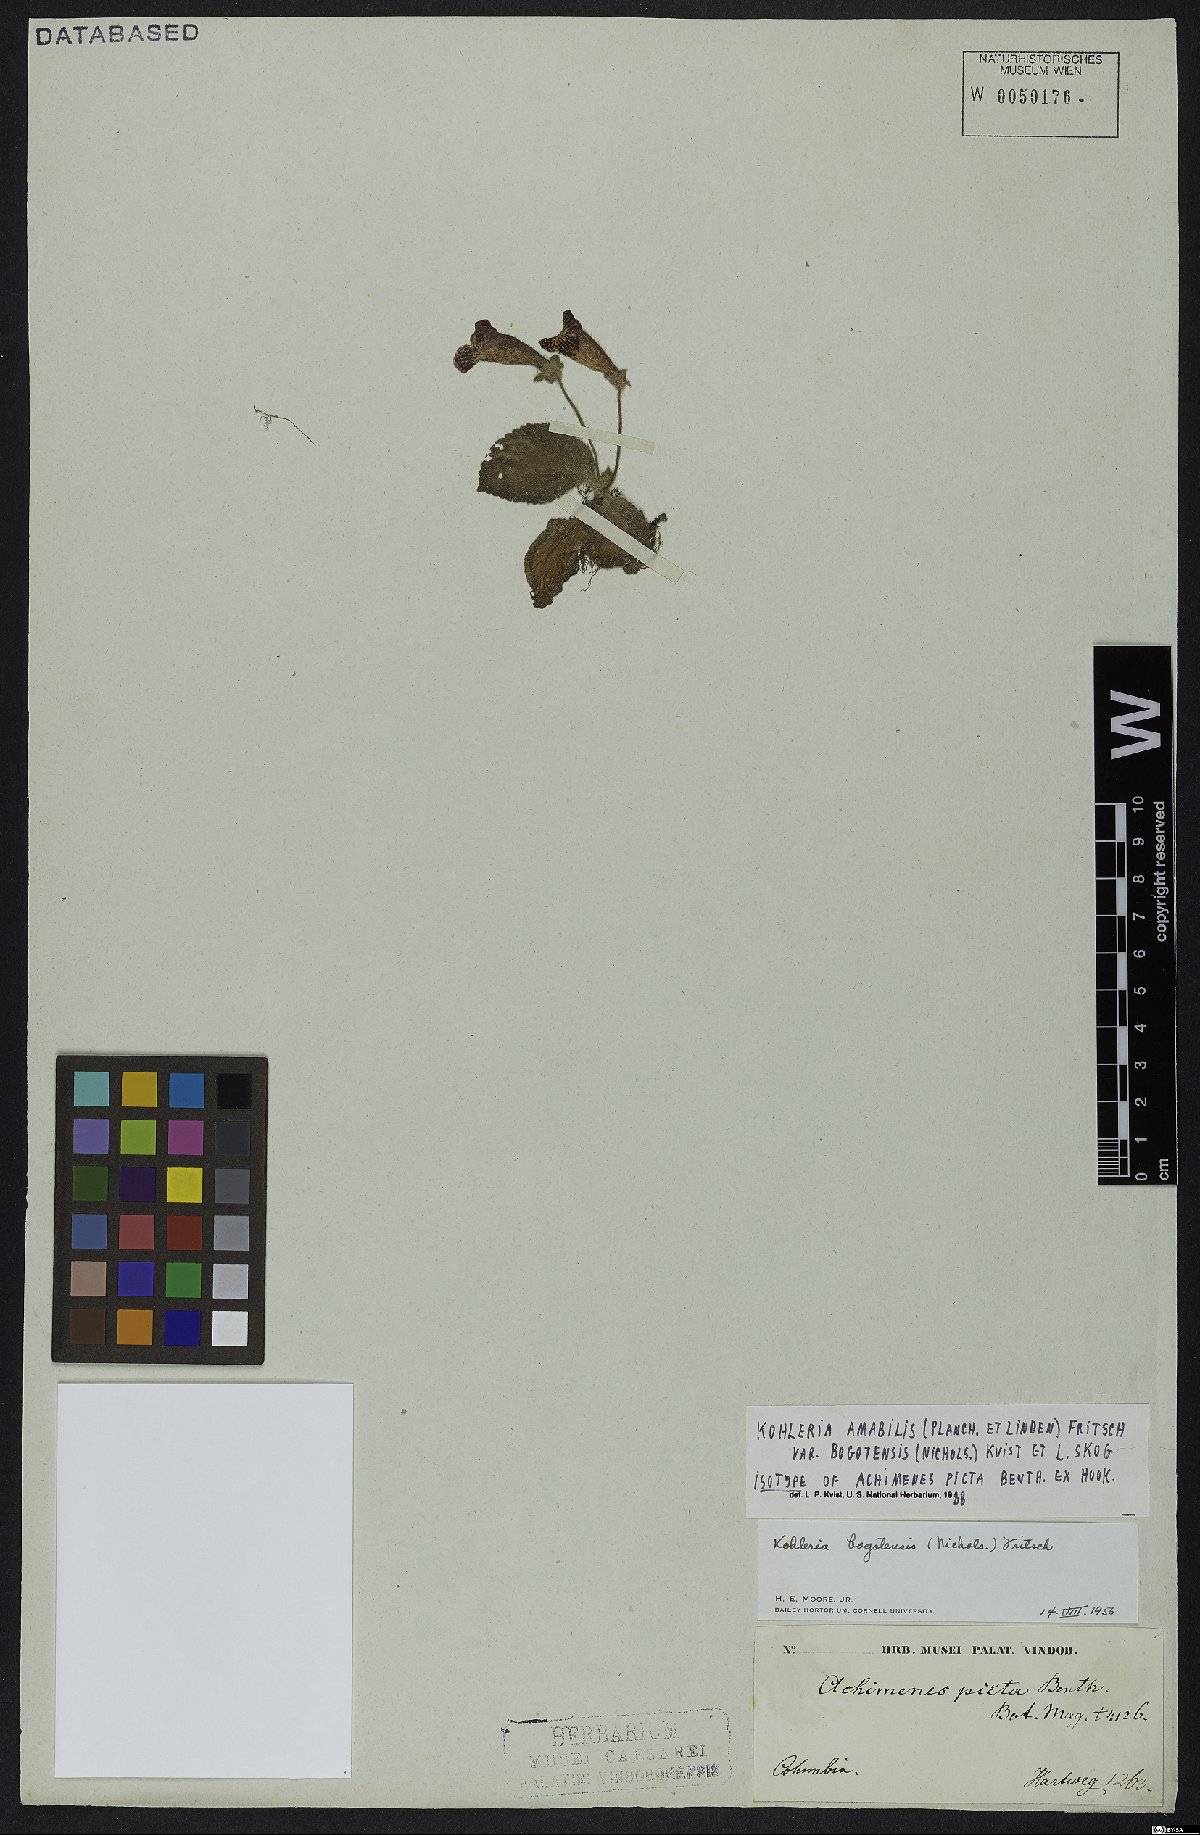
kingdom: Plantae
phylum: Tracheophyta
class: Magnoliopsida
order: Lamiales
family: Gesneriaceae
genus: Kohleria
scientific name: Kohleria amabilis
